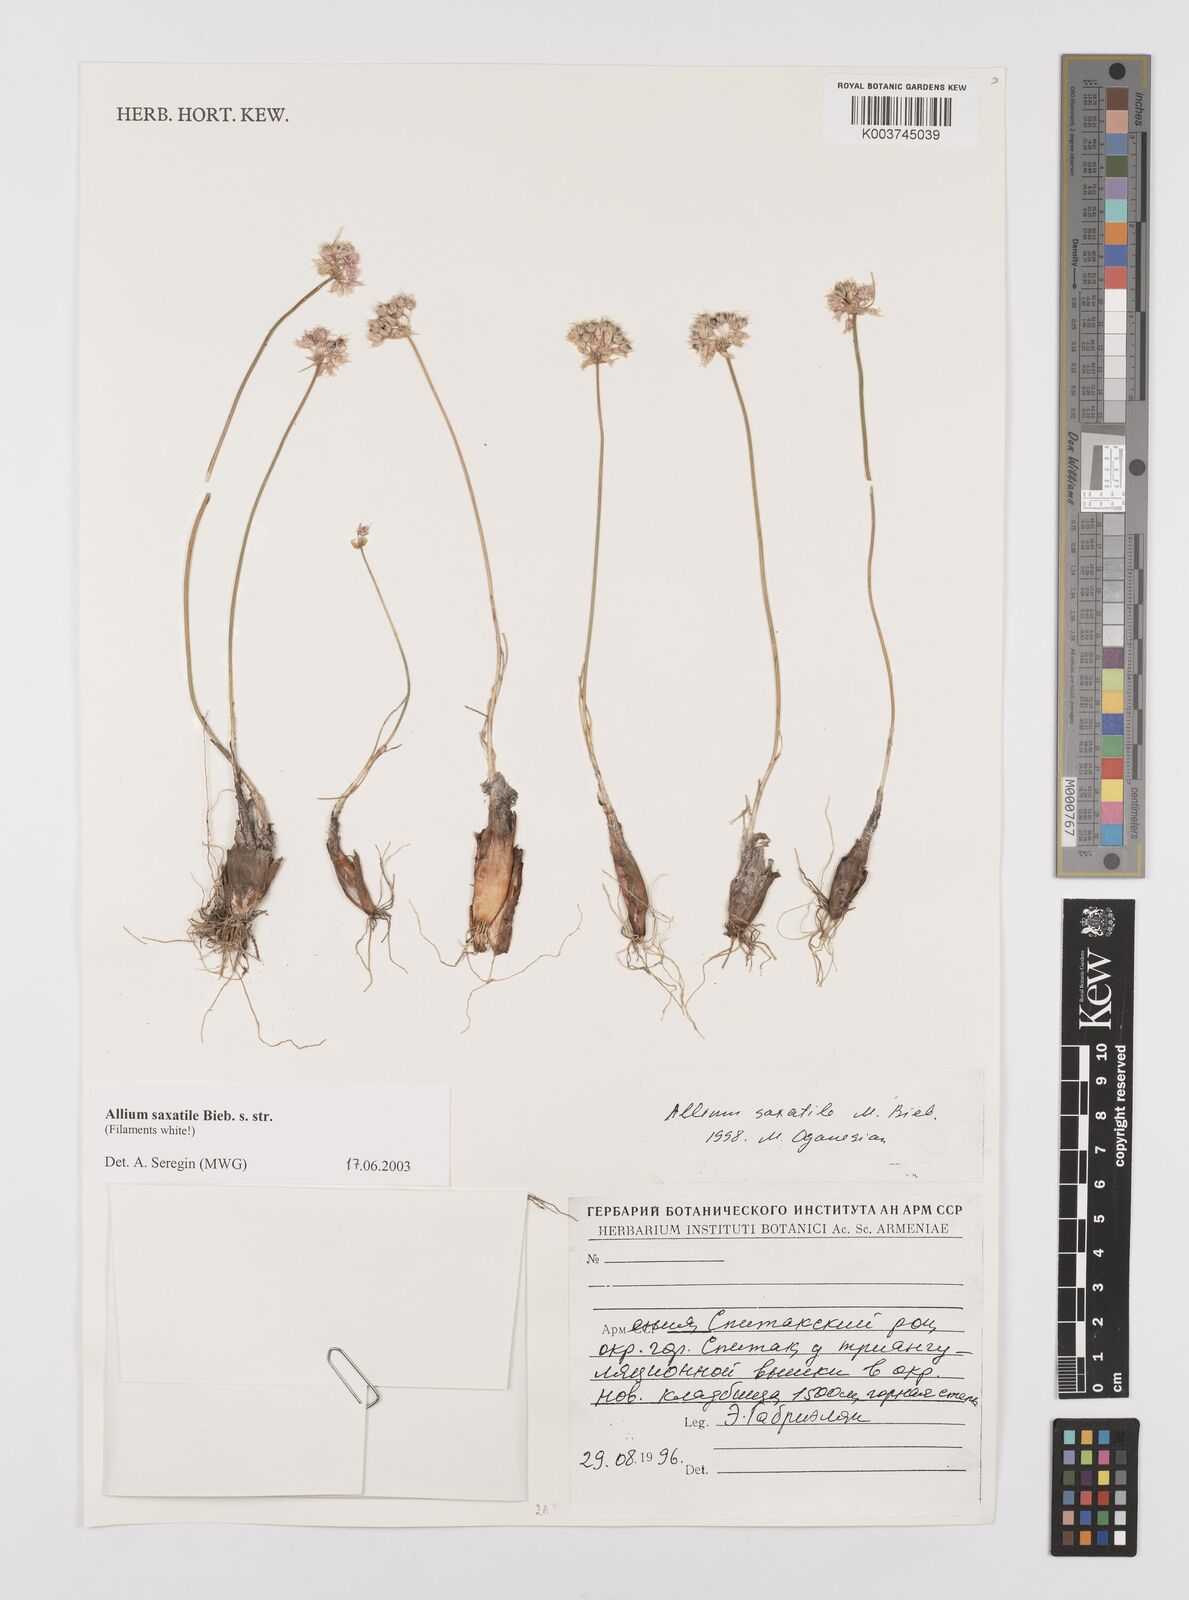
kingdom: Plantae
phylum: Tracheophyta
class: Liliopsida
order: Asparagales
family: Amaryllidaceae
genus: Allium
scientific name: Allium saxatile
